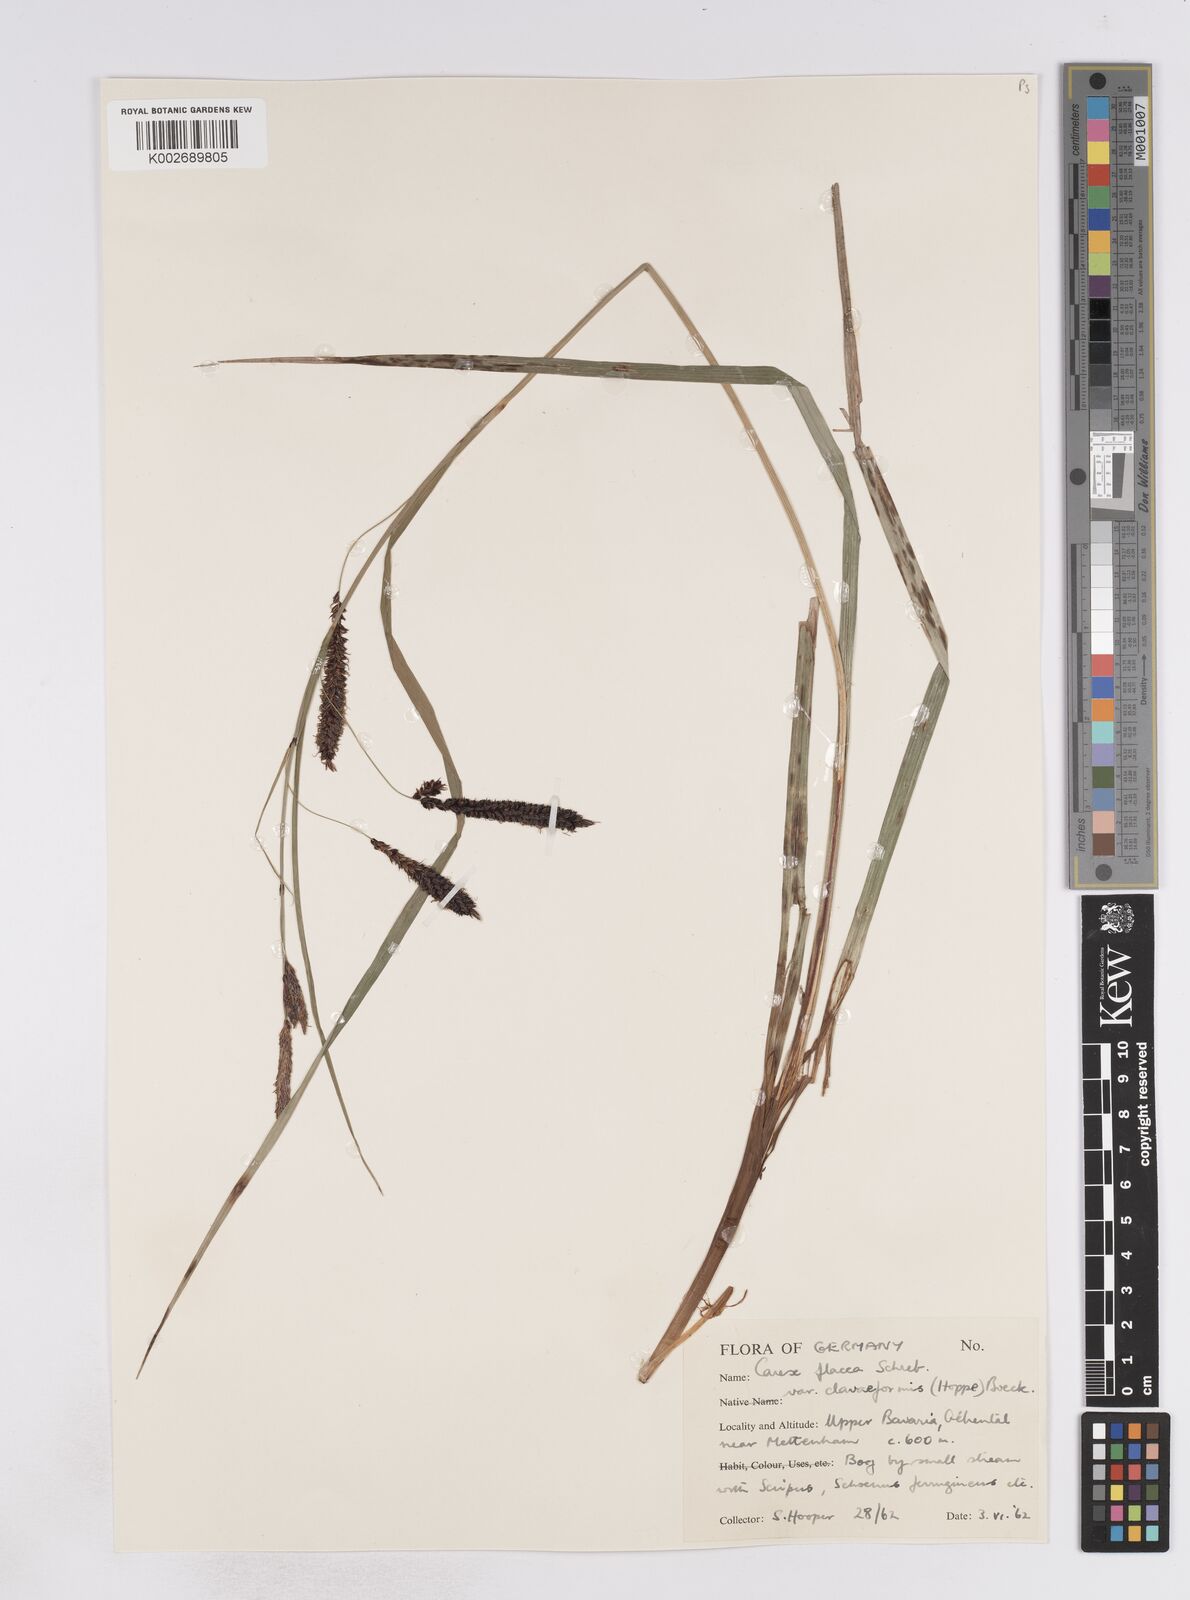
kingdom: Plantae
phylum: Tracheophyta
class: Liliopsida
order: Poales
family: Cyperaceae
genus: Carex
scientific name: Carex flacca
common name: Glaucous sedge
